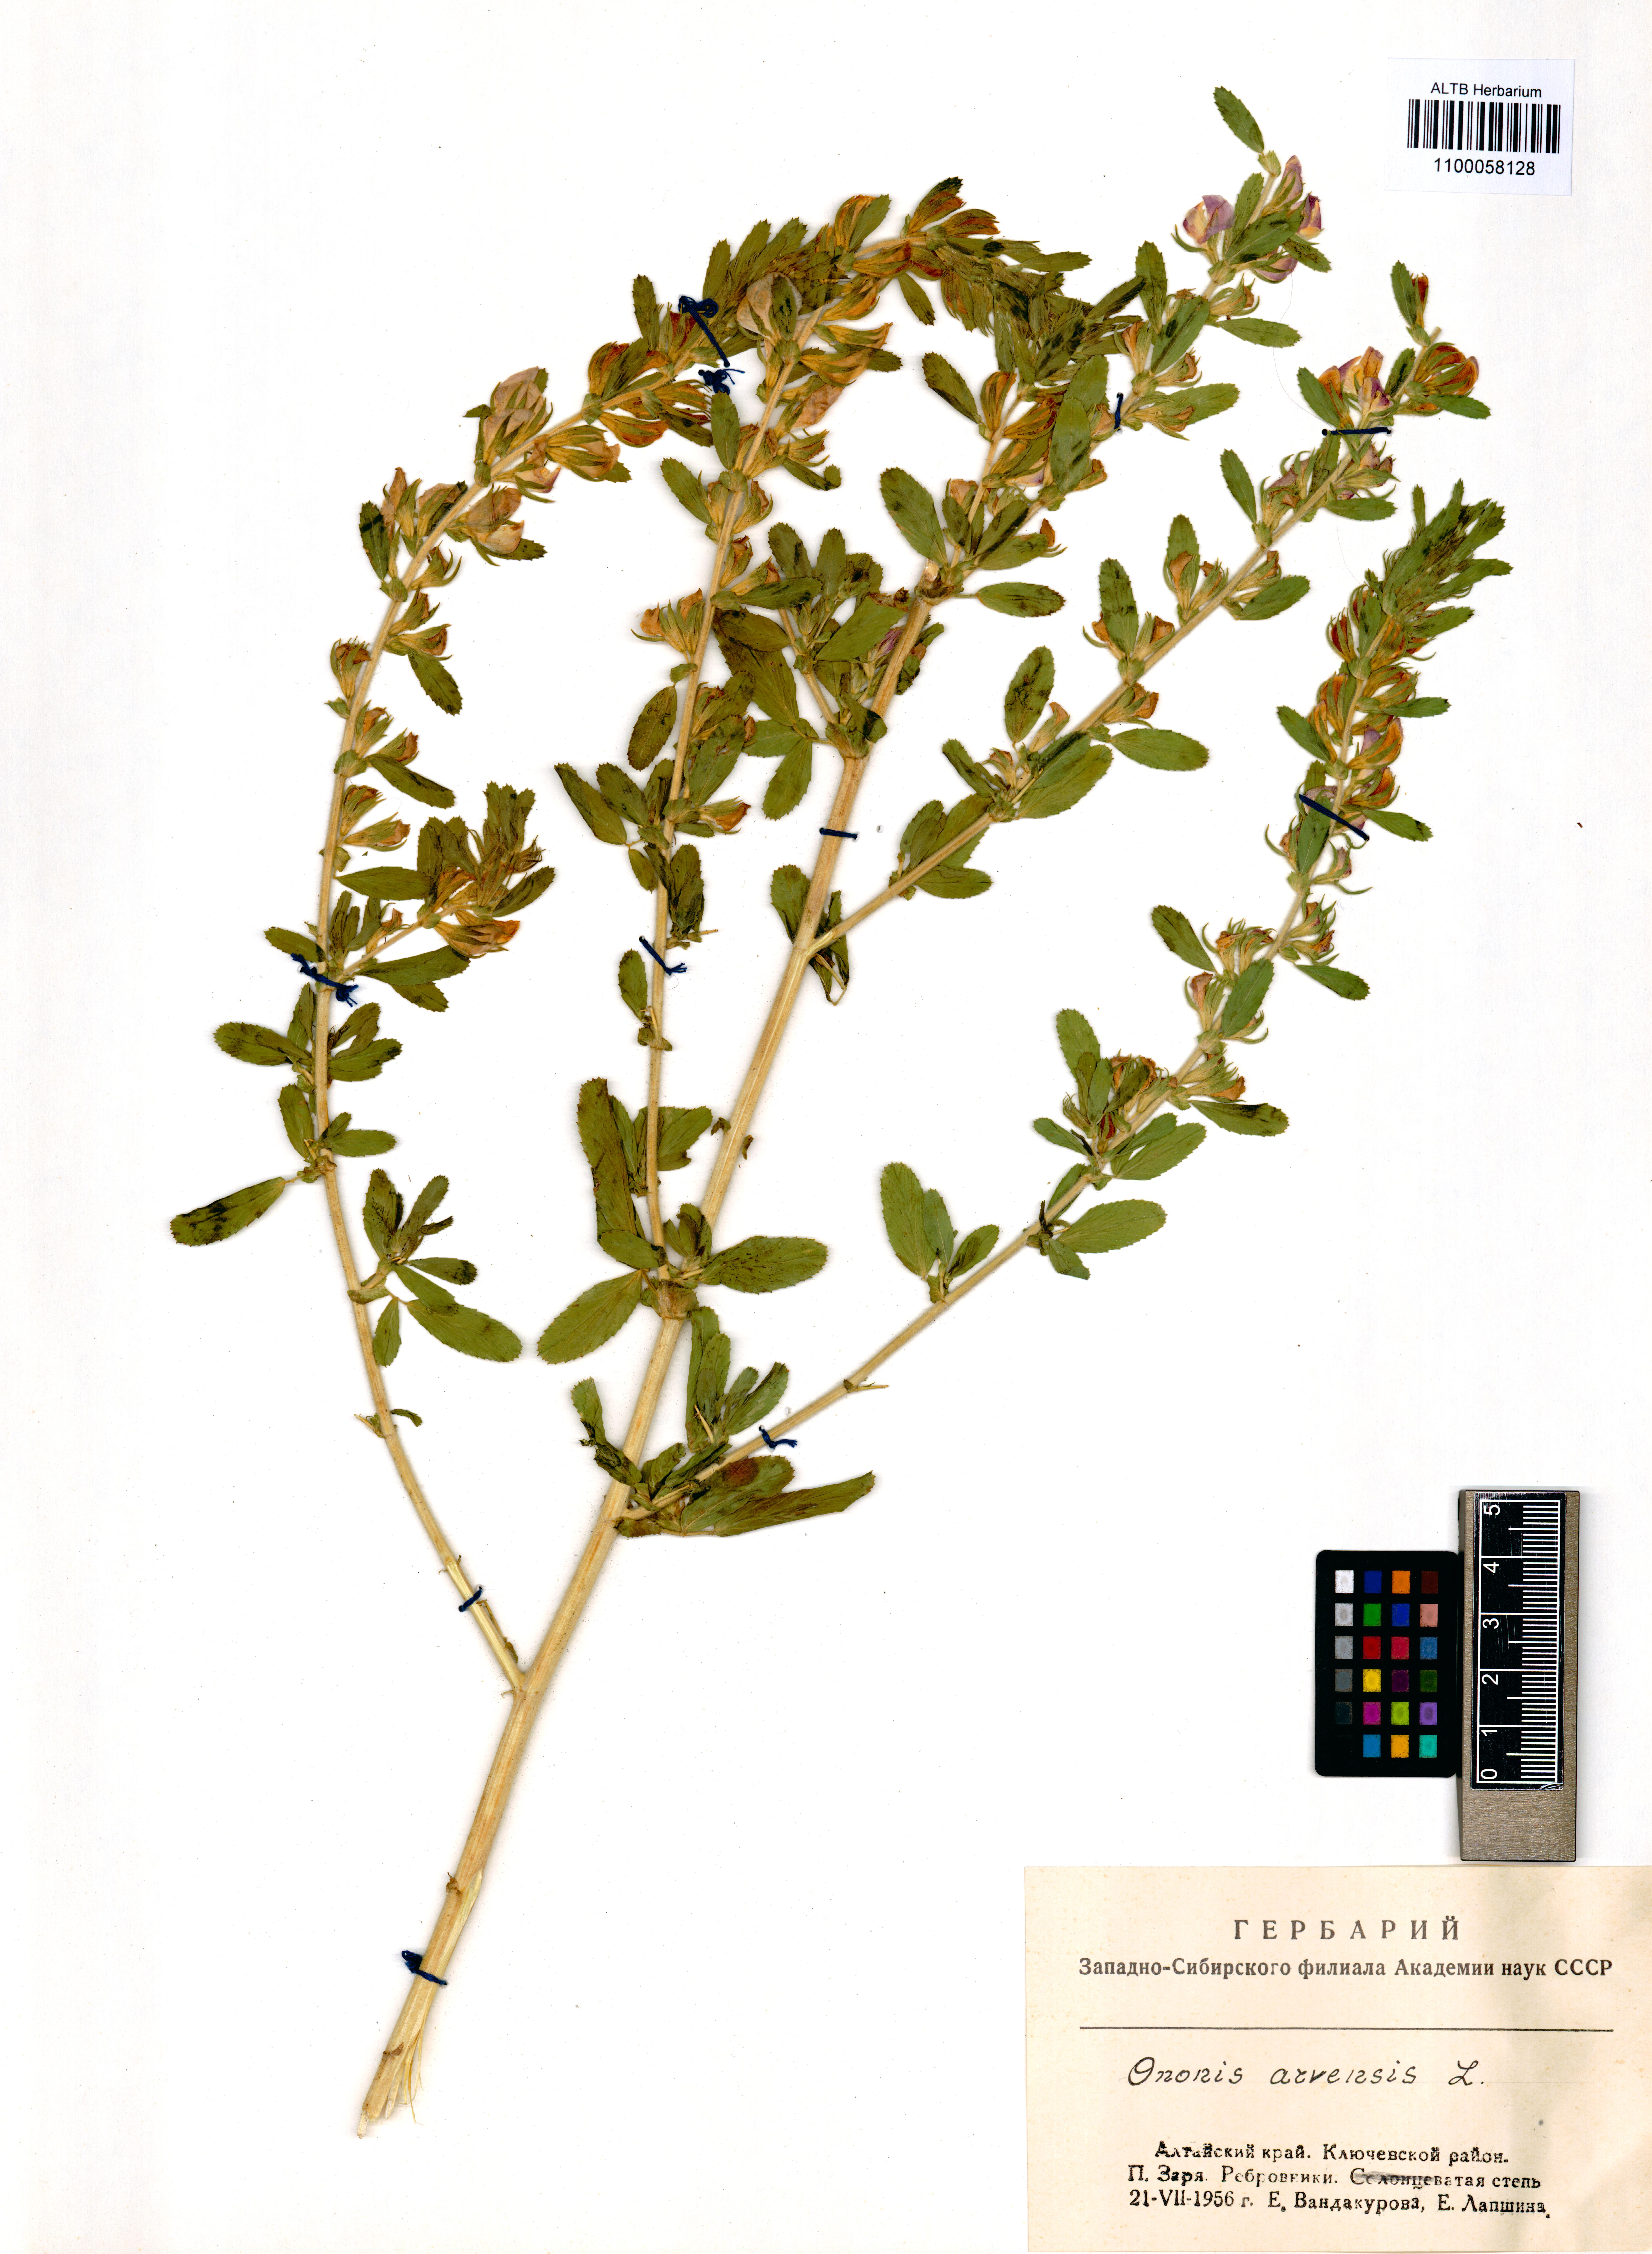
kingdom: Plantae
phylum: Tracheophyta
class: Magnoliopsida
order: Fabales
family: Fabaceae
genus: Ononis
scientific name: Ononis arvensis
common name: Field restharrow
